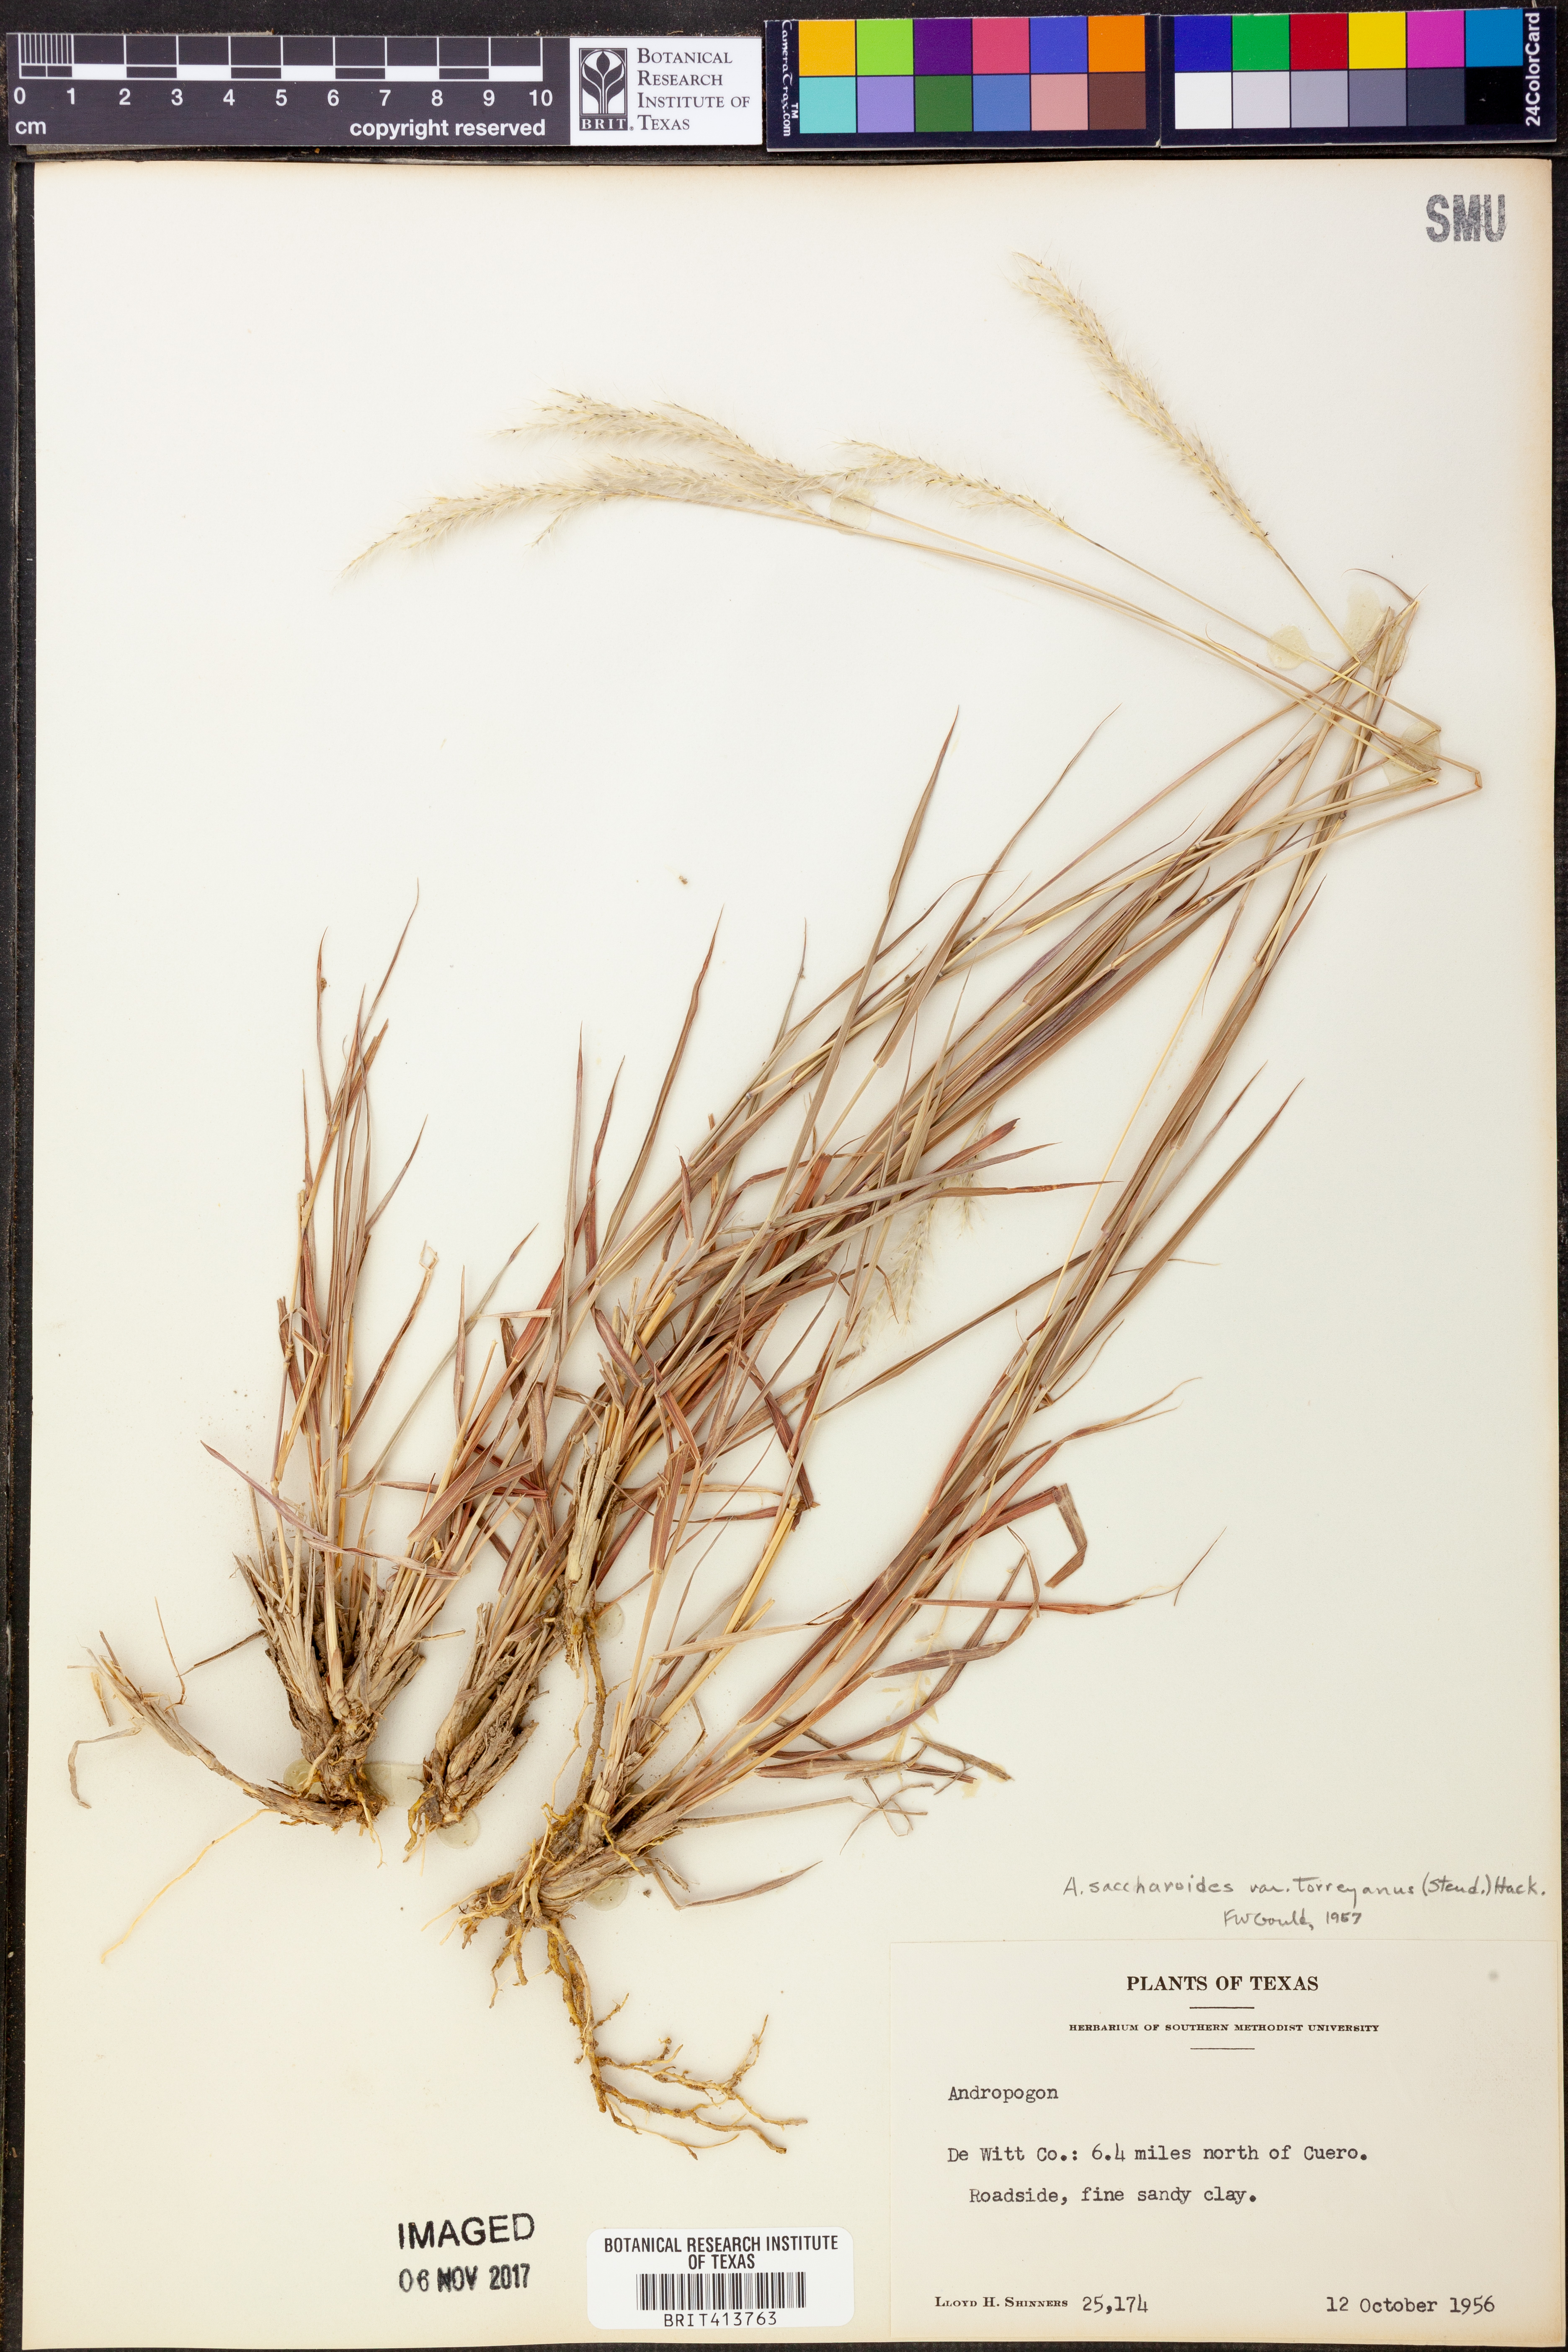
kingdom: Plantae
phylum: Tracheophyta
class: Liliopsida
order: Poales
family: Poaceae
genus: Bothriochloa
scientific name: Bothriochloa torreyana
